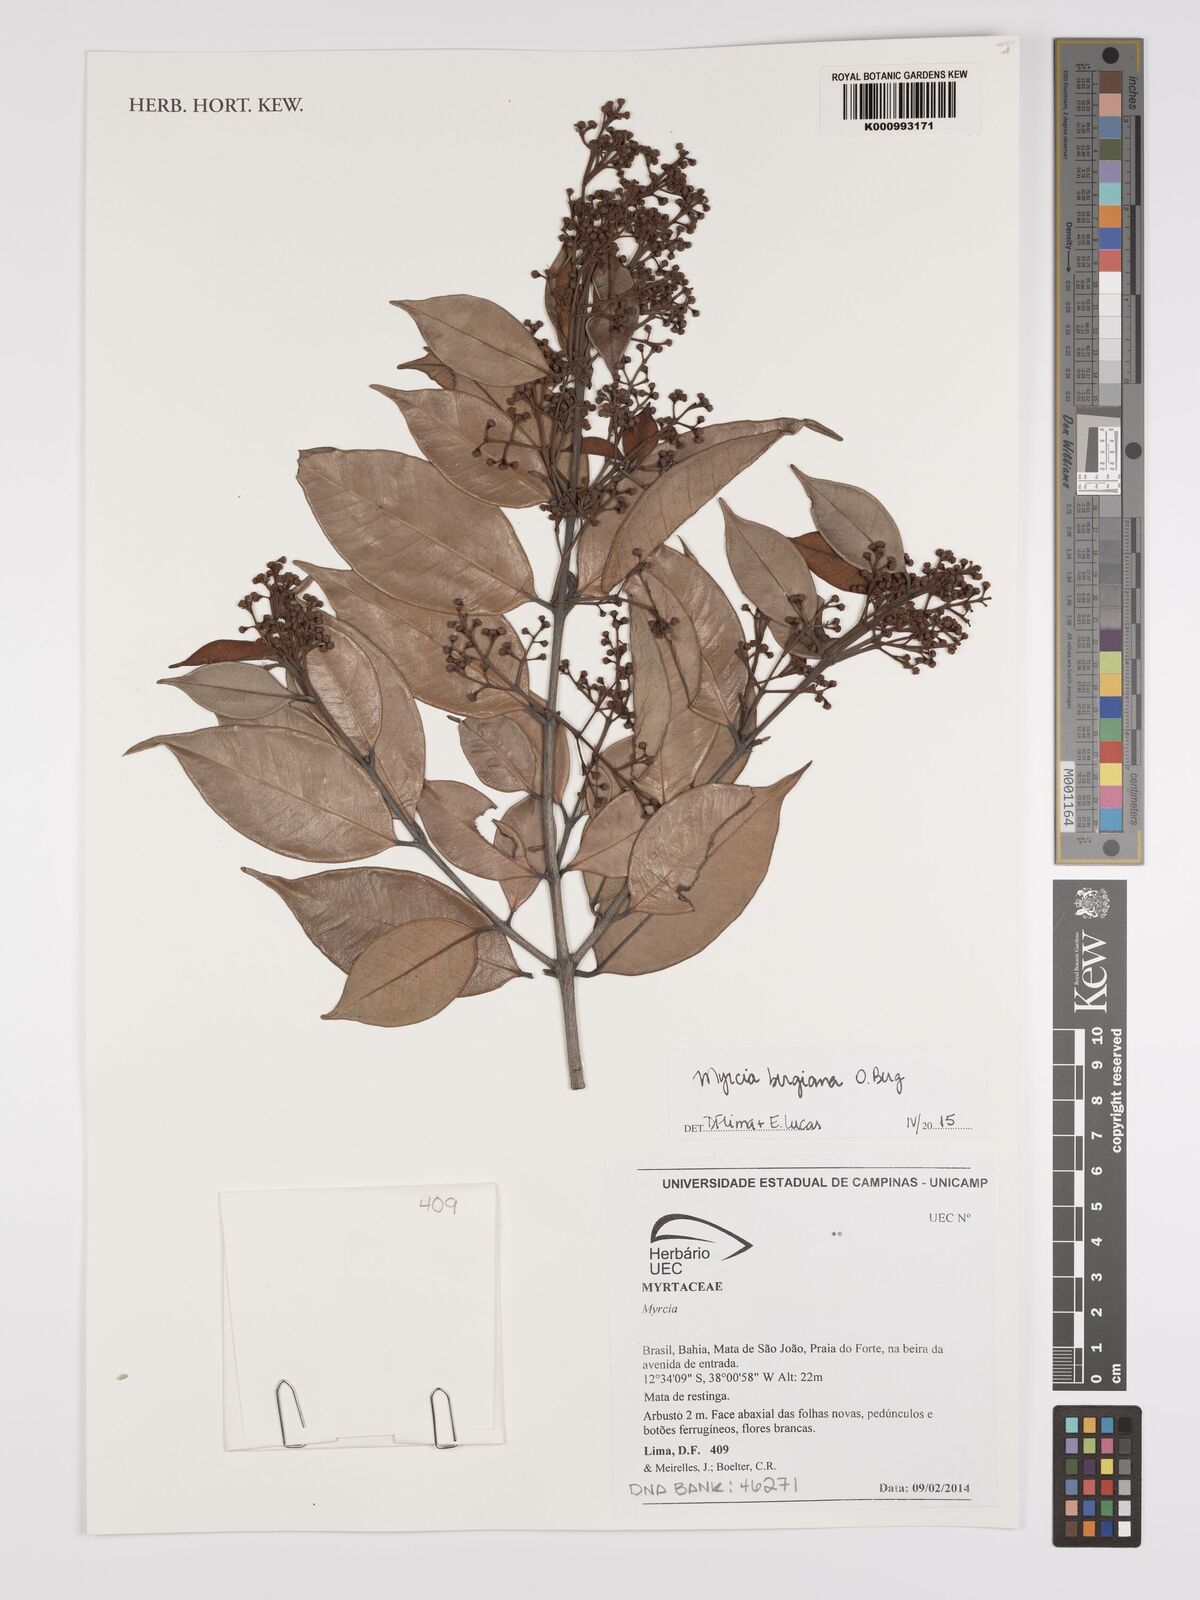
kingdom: Plantae
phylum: Tracheophyta
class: Magnoliopsida
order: Myrtales
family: Myrtaceae
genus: Myrcia
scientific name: Myrcia bergiana
